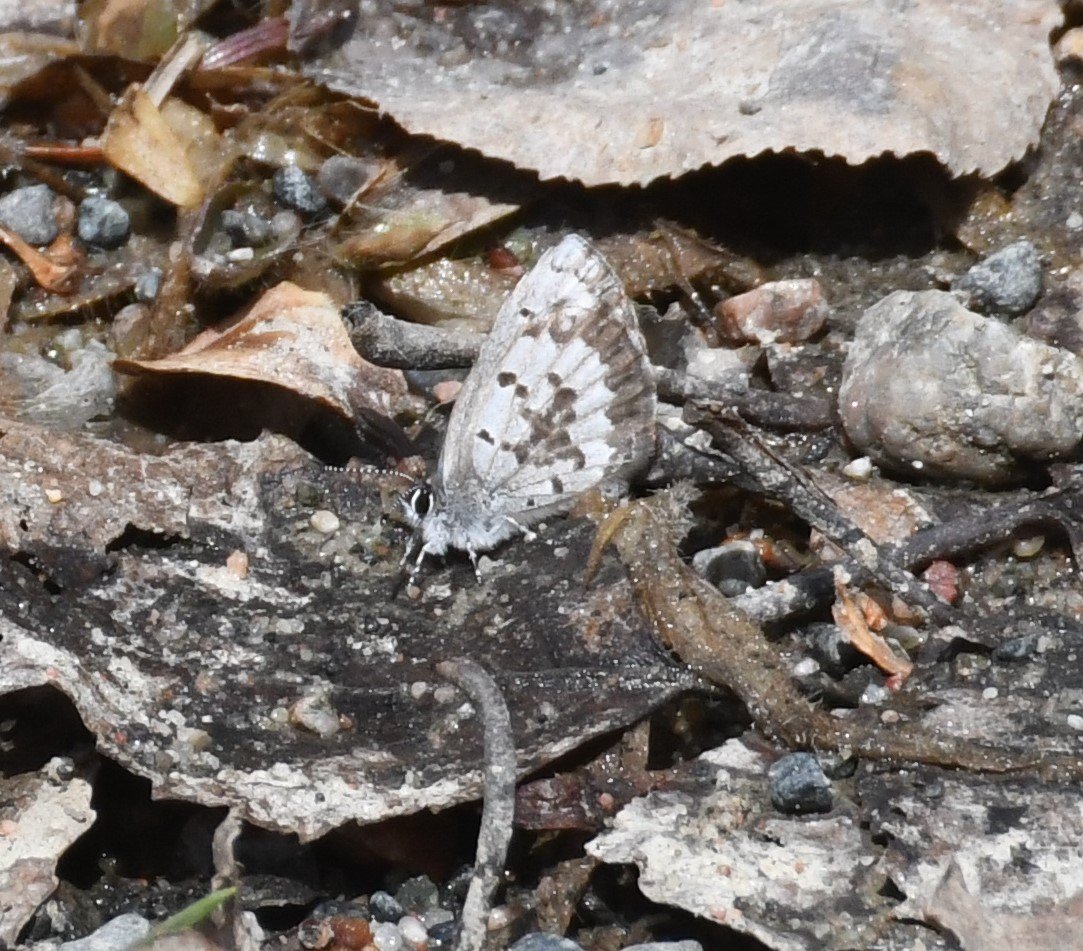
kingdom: Animalia
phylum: Arthropoda
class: Insecta
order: Lepidoptera
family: Lycaenidae
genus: Celastrina
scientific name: Celastrina lucia
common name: Northern Spring Azure
